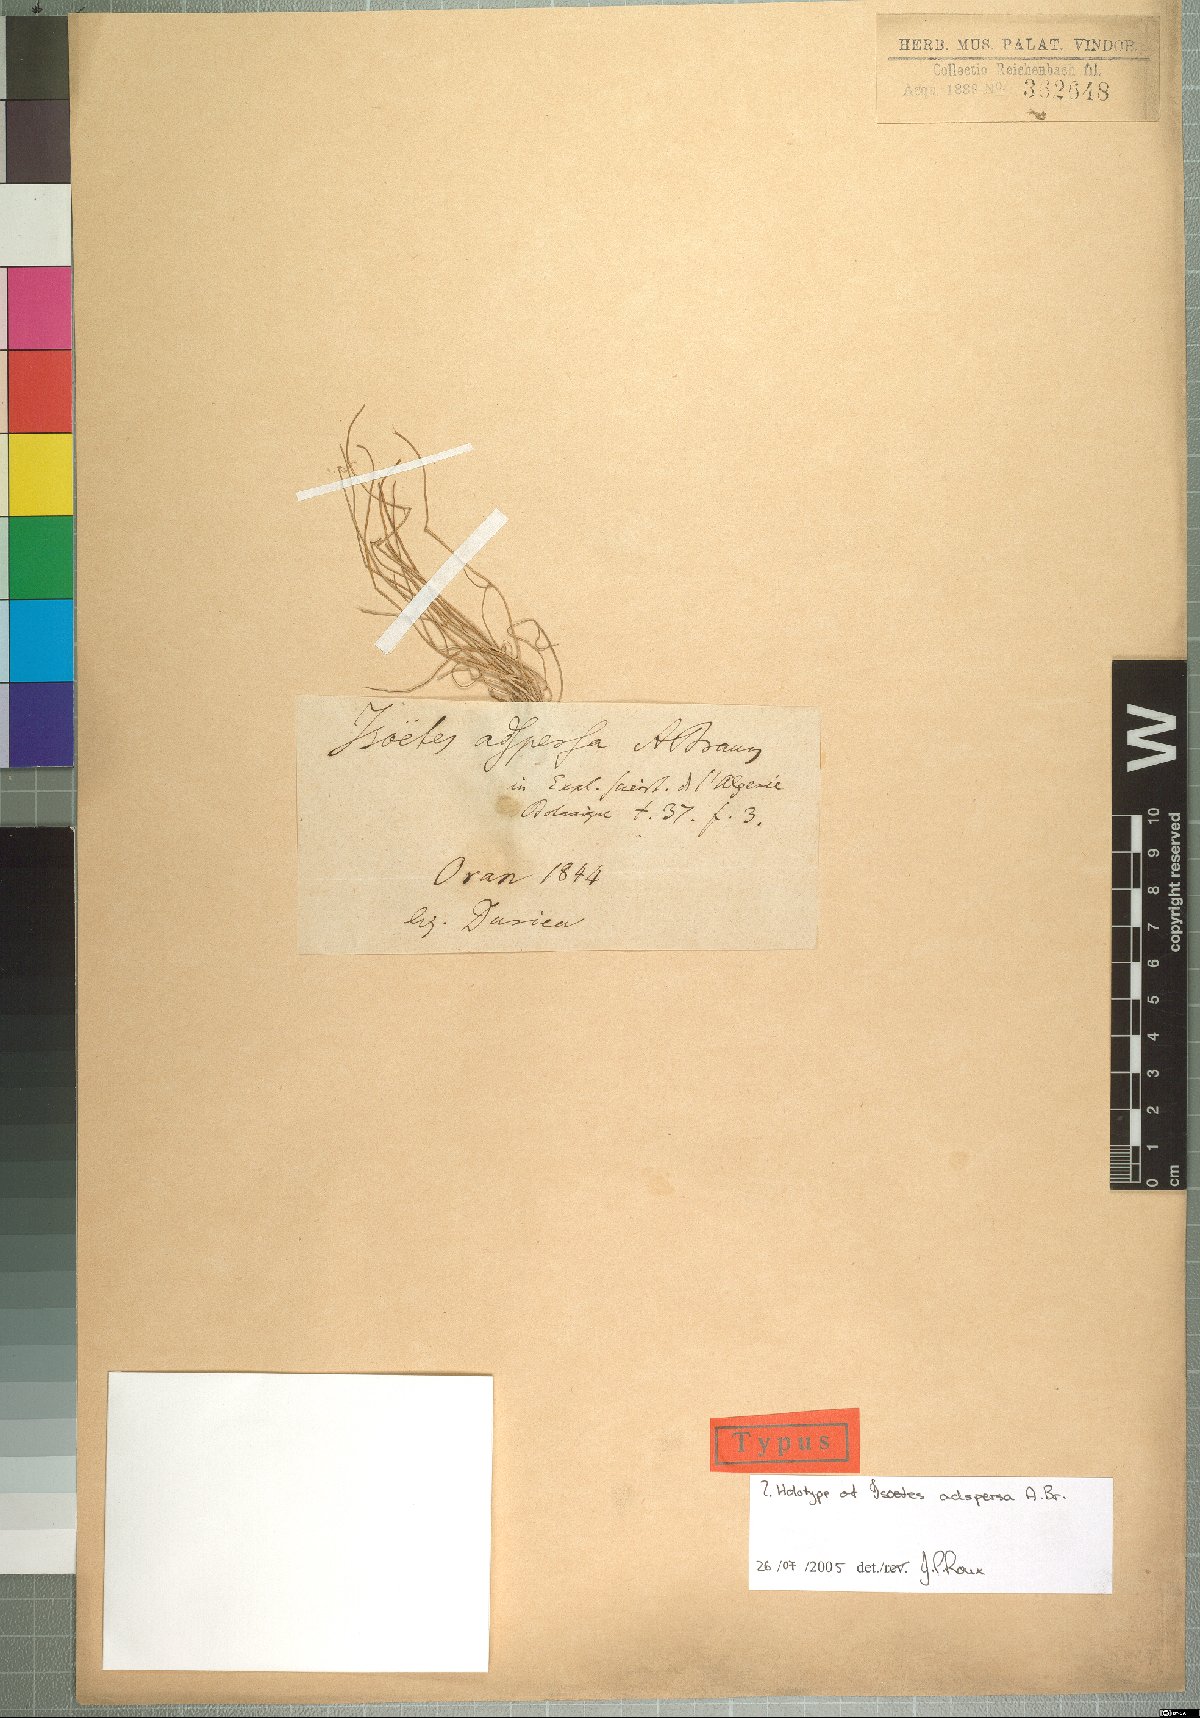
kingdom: Plantae
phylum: Tracheophyta
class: Lycopodiopsida
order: Isoetales
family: Isoetaceae
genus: Isoetes
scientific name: Isoetes longissima
